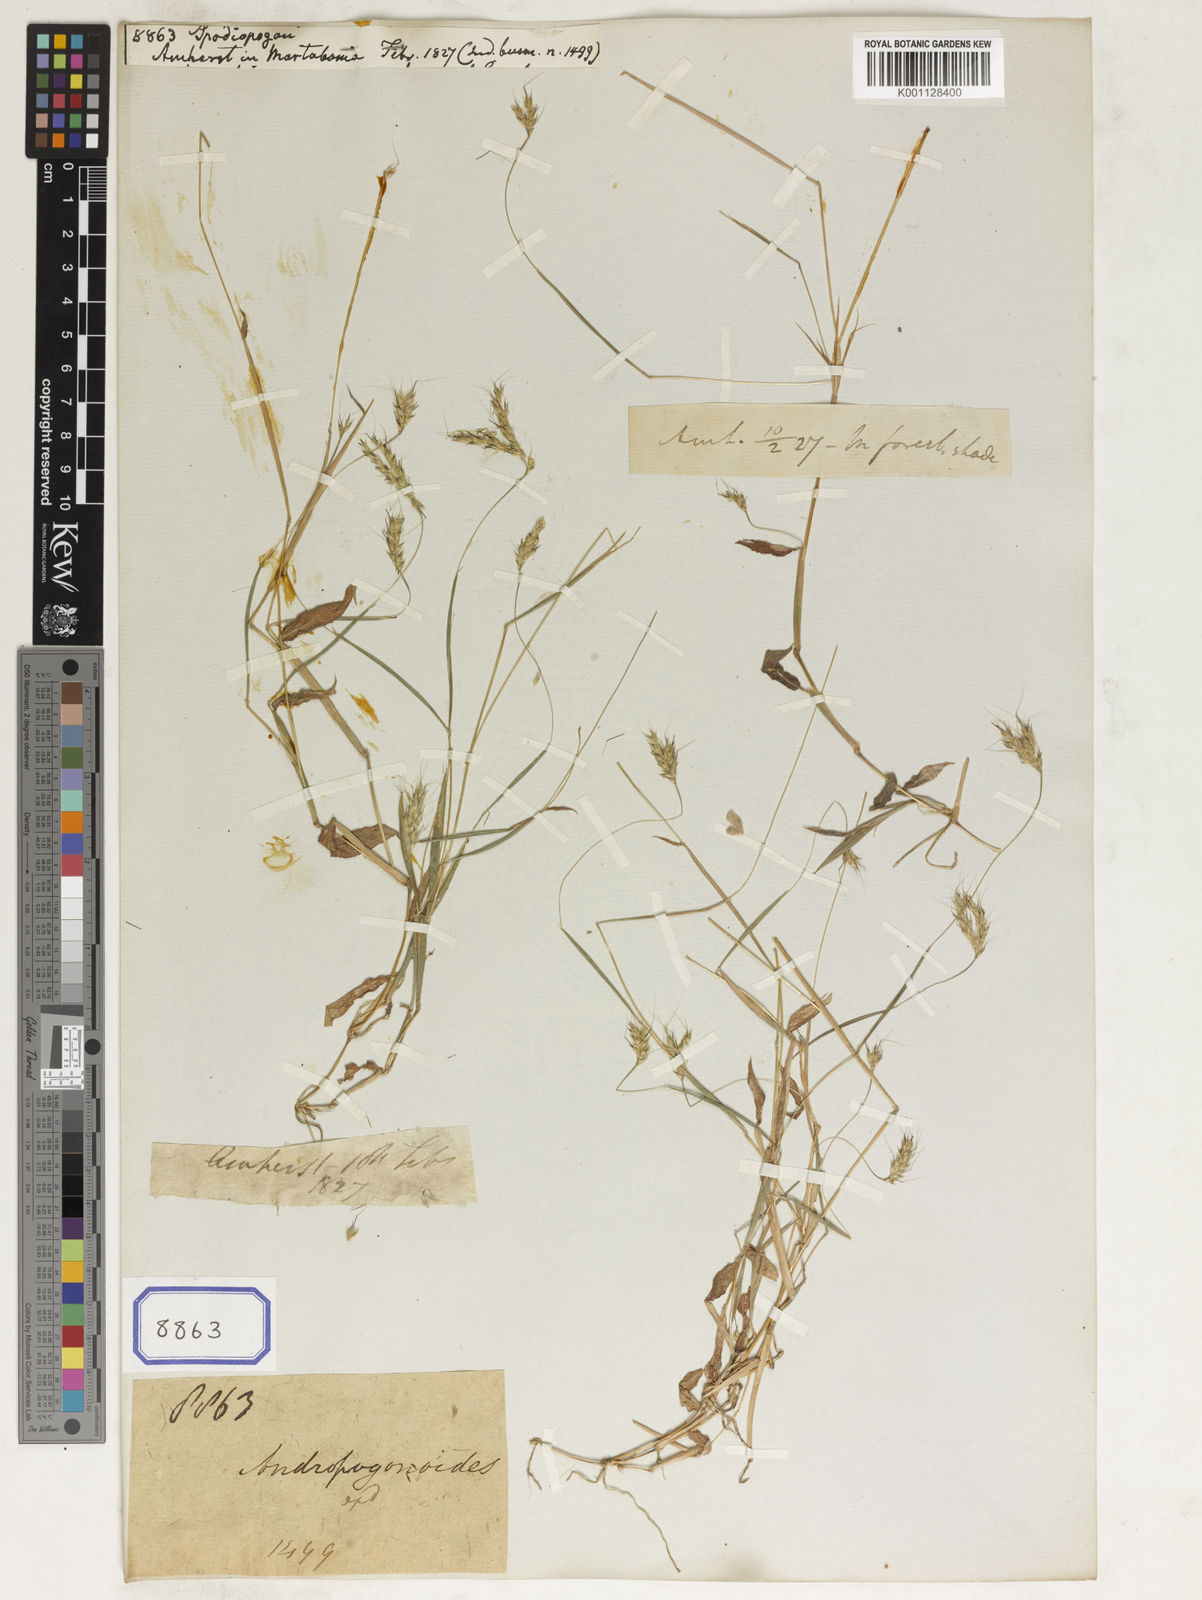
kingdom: Plantae
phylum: Tracheophyta
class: Liliopsida
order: Poales
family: Poaceae
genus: Spodiopogon
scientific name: Spodiopogon
